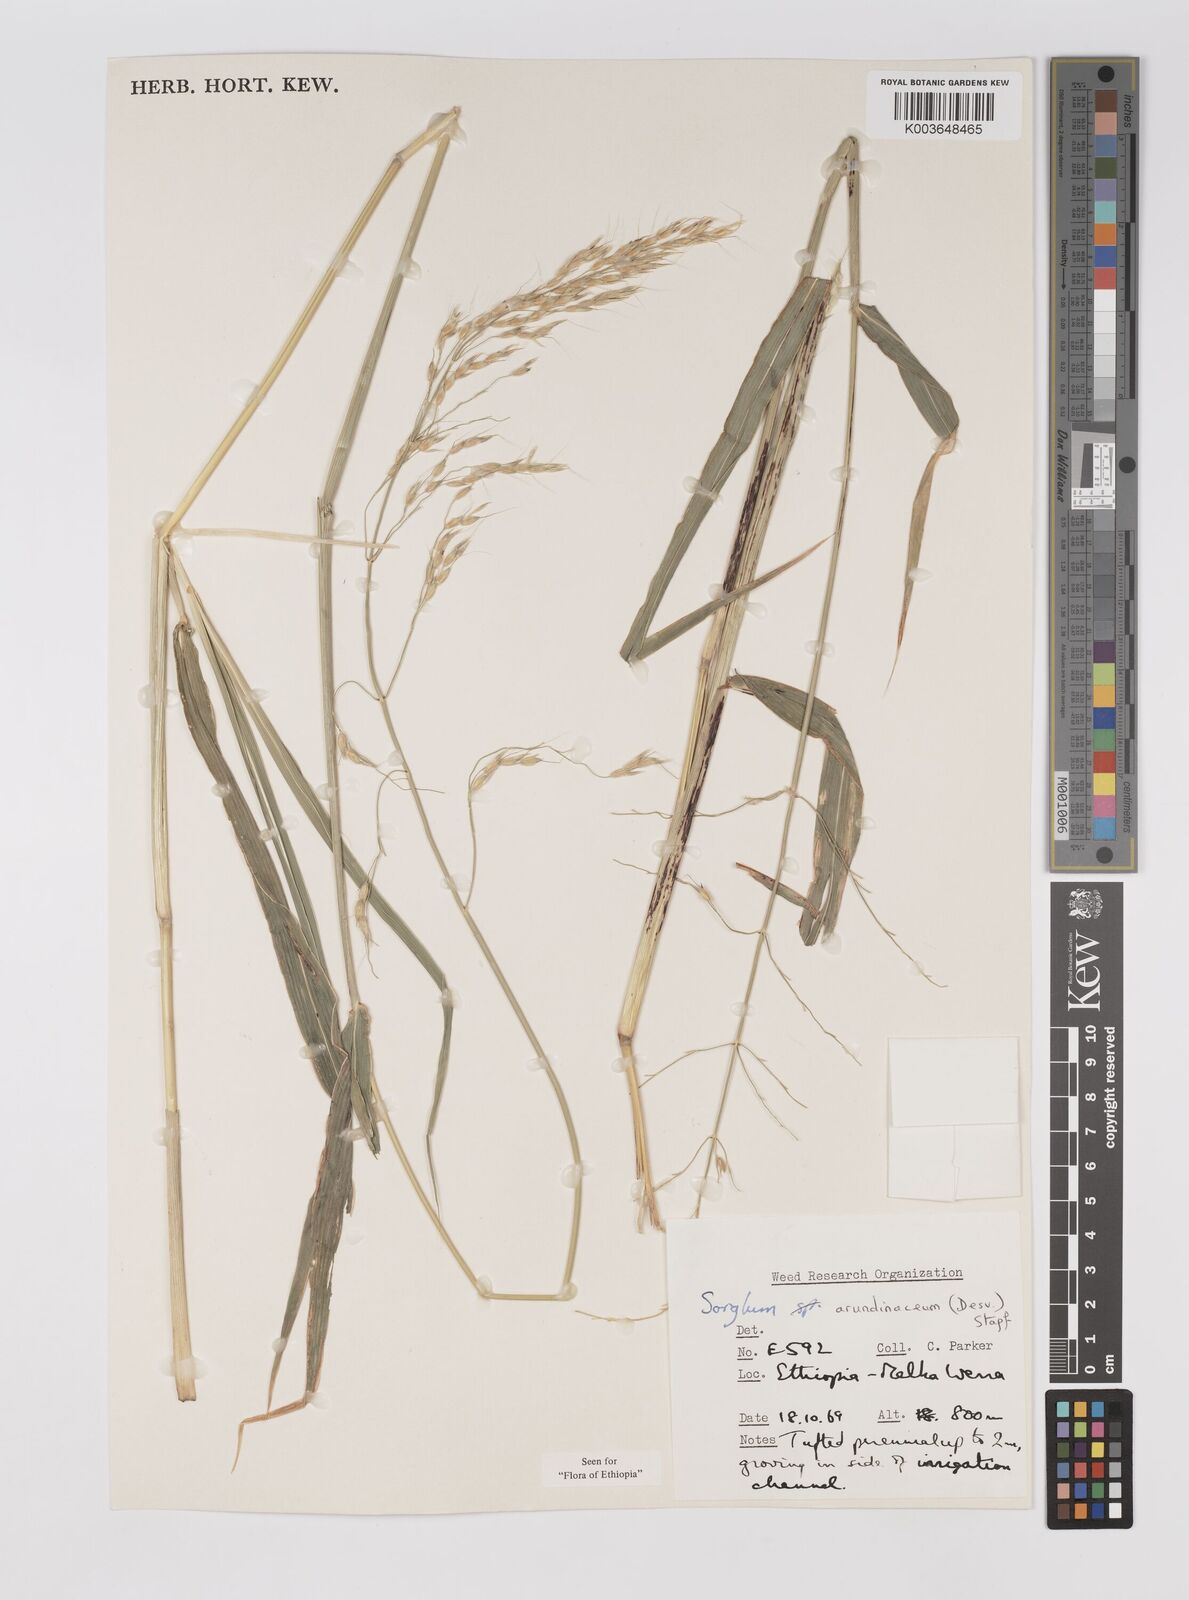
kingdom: Plantae
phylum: Tracheophyta
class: Liliopsida
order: Poales
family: Poaceae
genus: Sorghum
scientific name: Sorghum arundinaceum
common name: Sorghum
